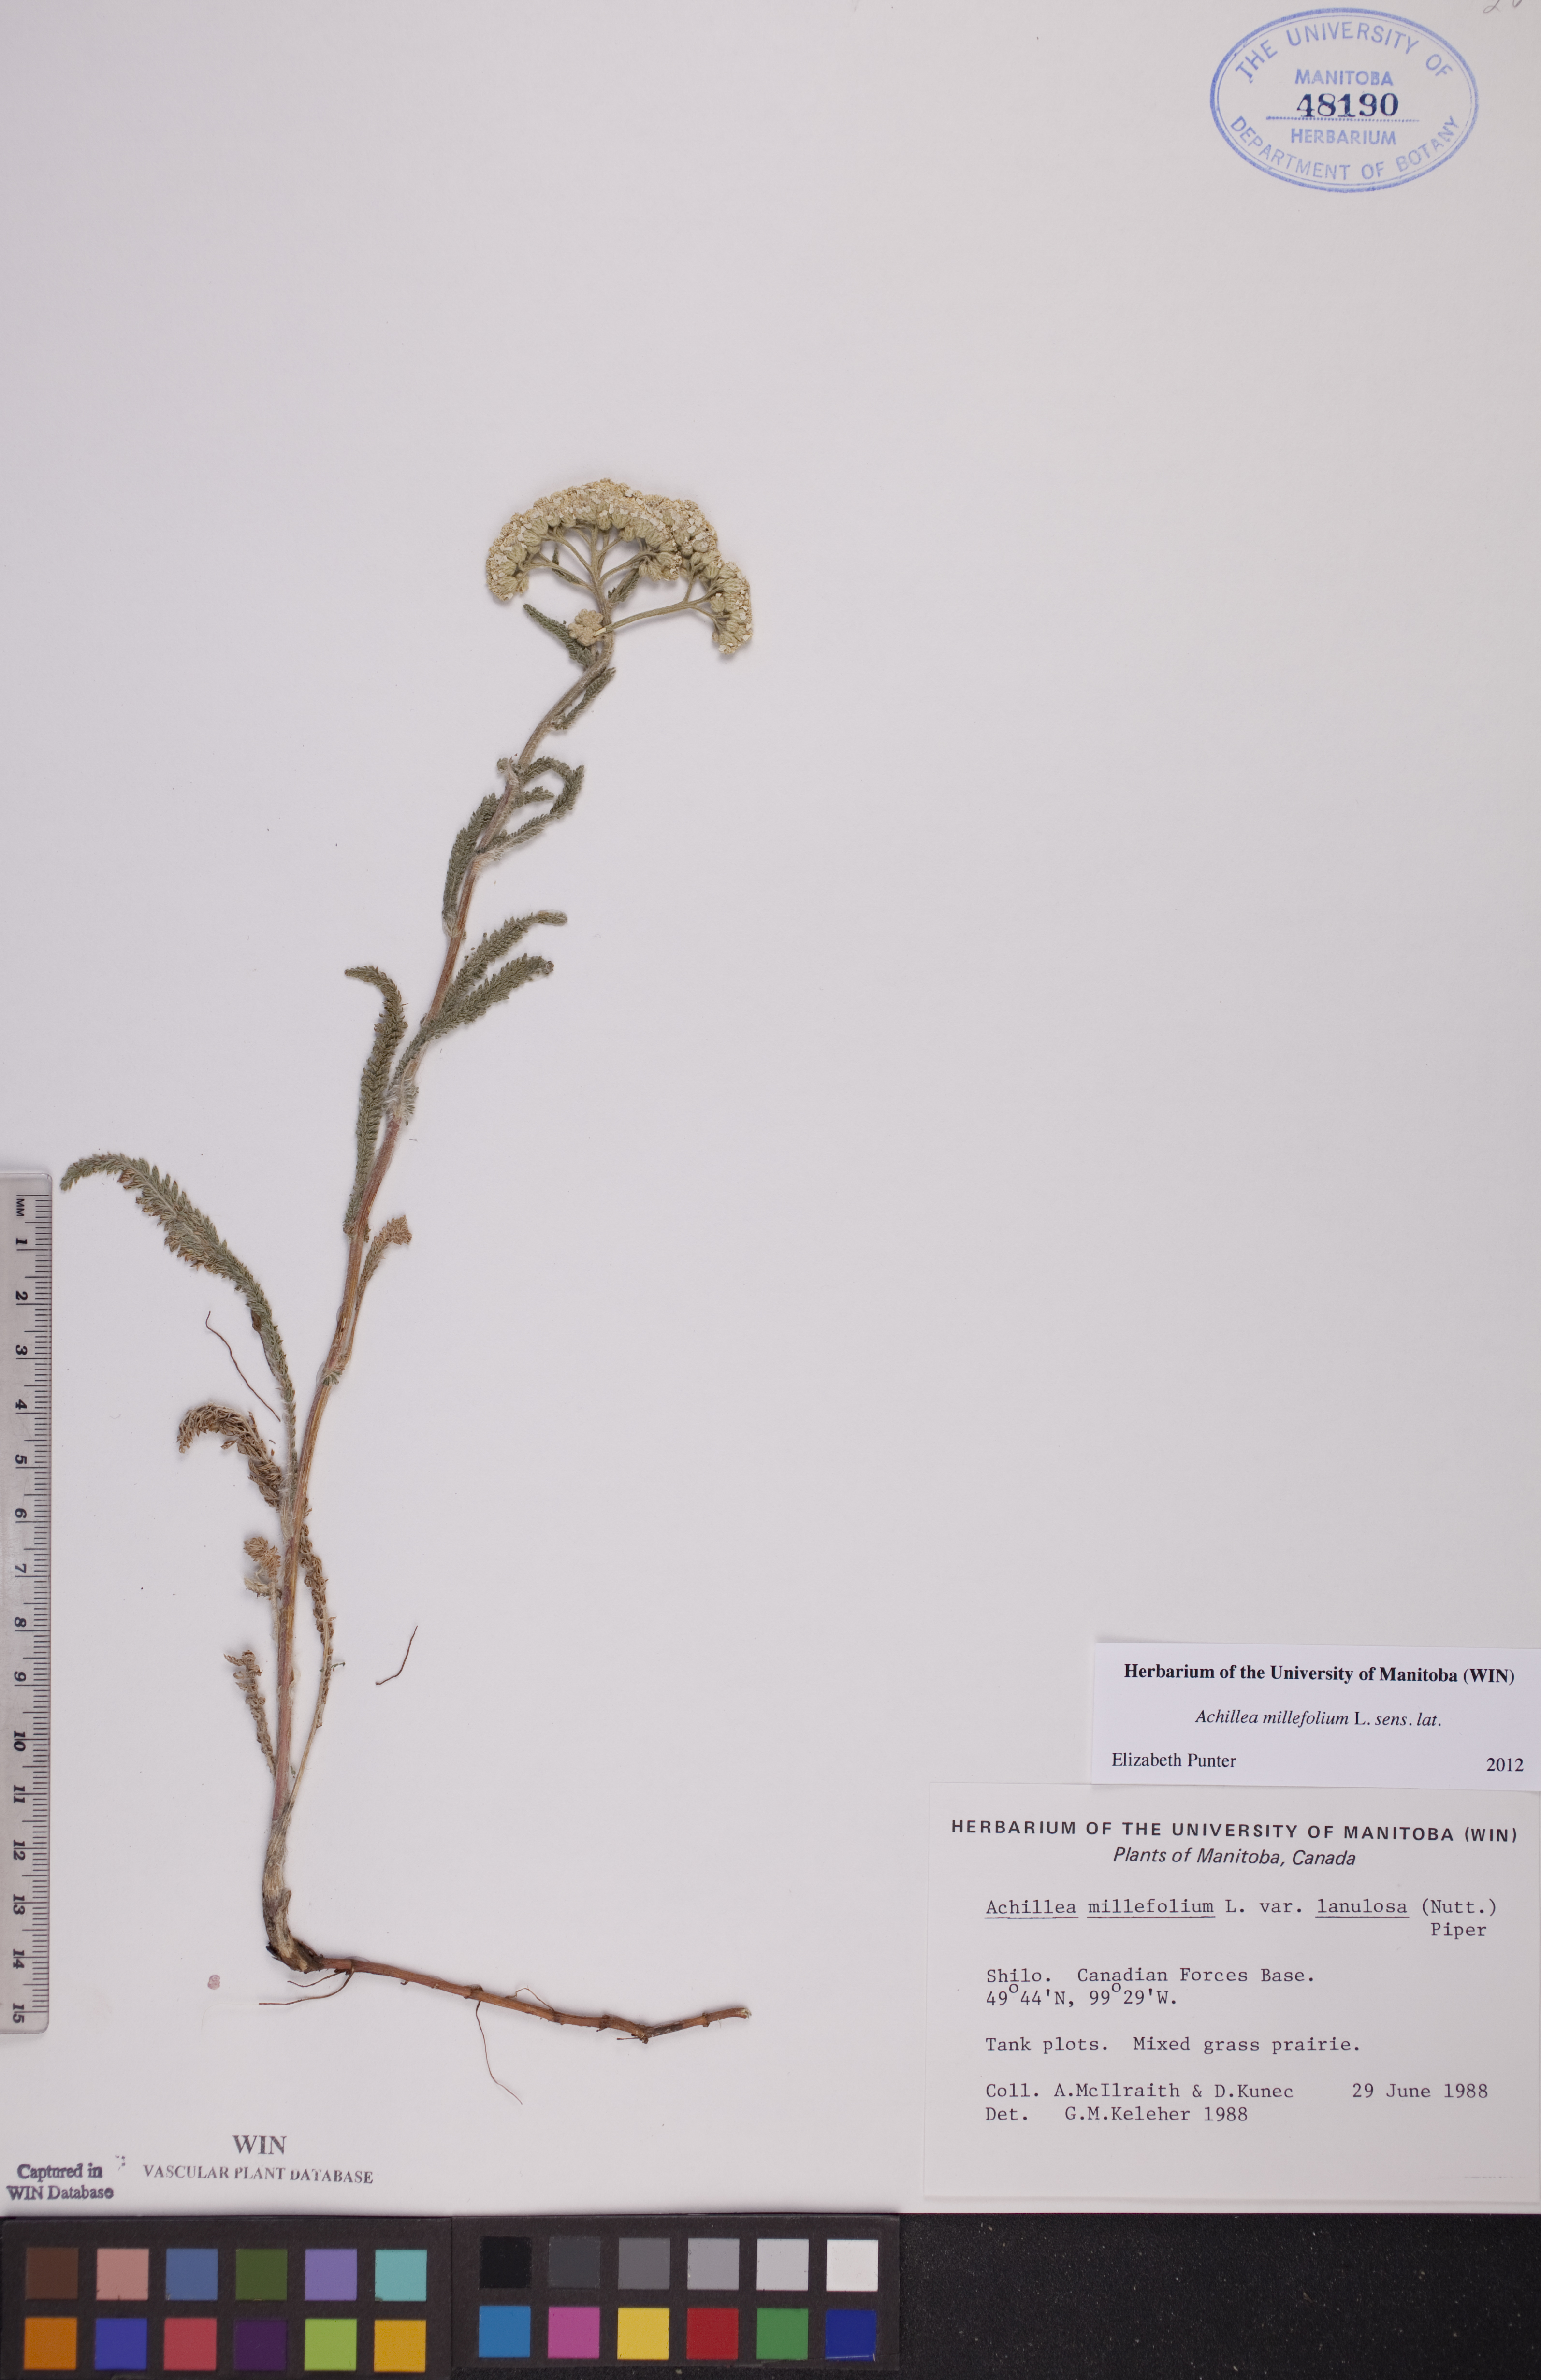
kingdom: Plantae
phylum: Tracheophyta
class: Magnoliopsida
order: Asterales
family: Asteraceae
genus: Achillea
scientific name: Achillea millefolium
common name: Yarrow
